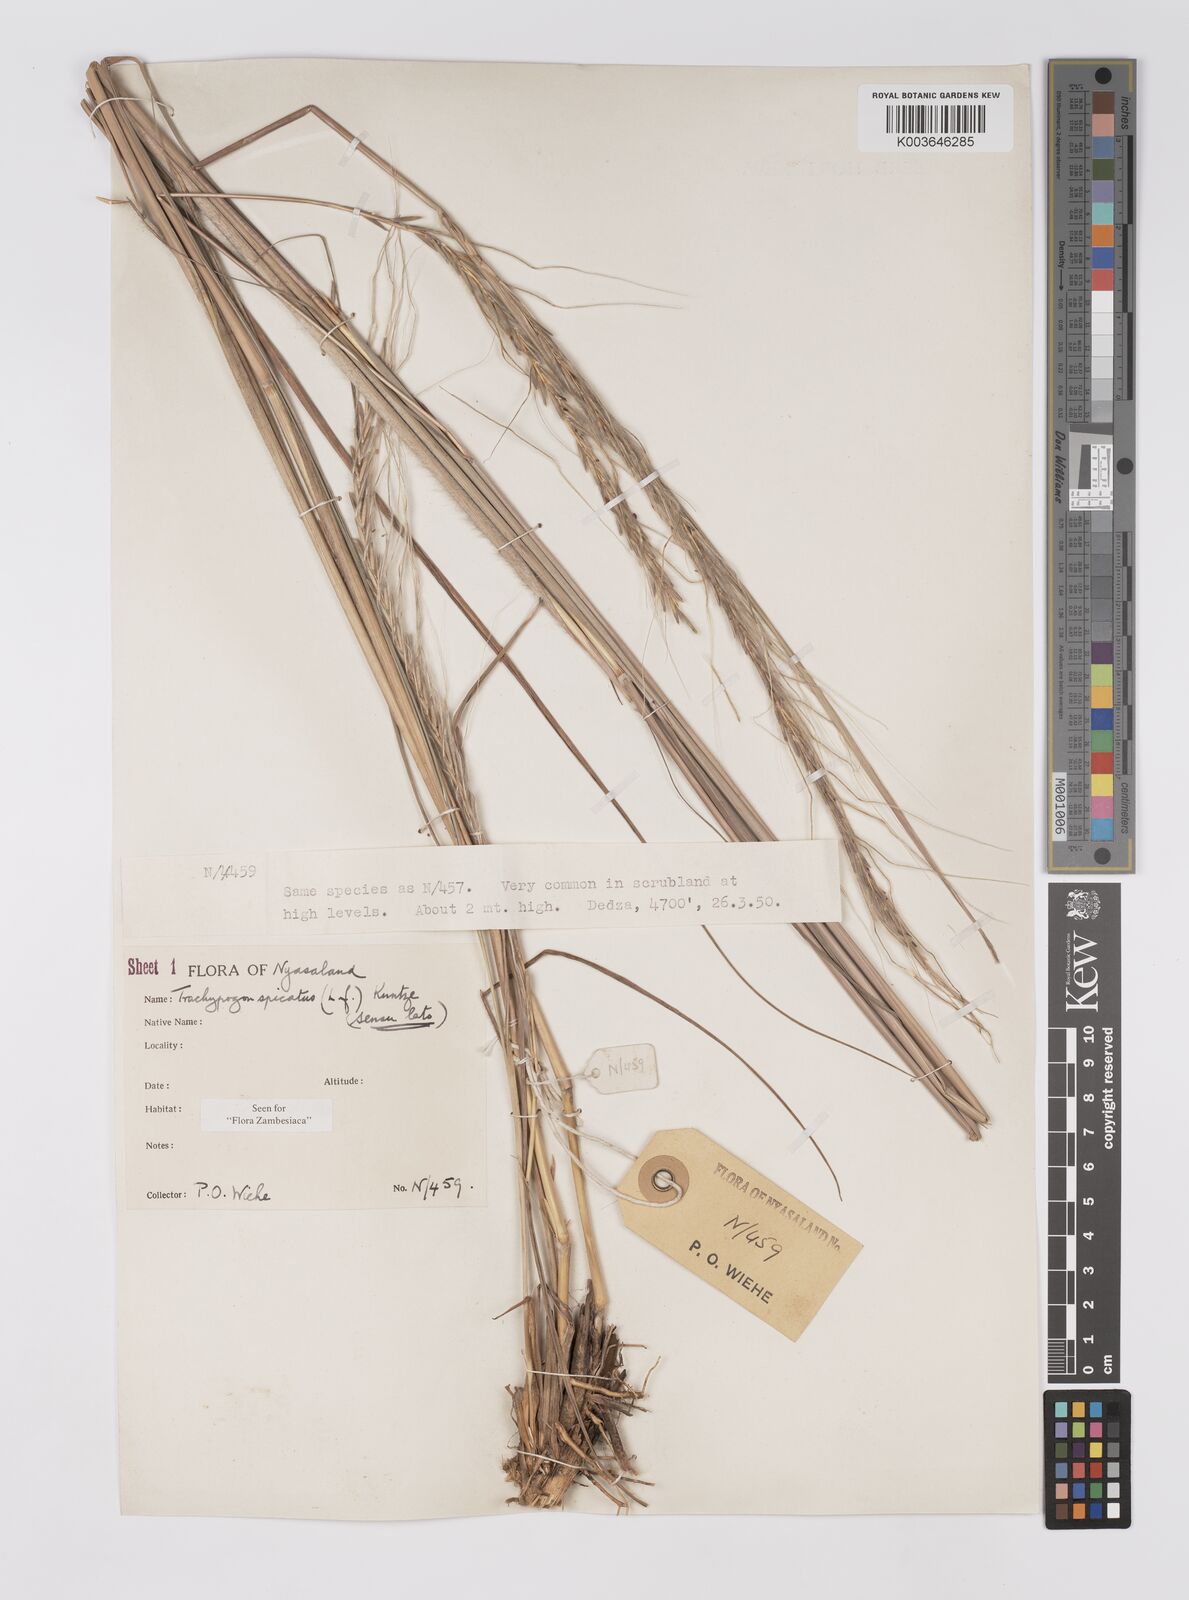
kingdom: Plantae
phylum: Tracheophyta
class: Liliopsida
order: Poales
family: Poaceae
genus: Trachypogon
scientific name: Trachypogon spicatus
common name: Crinkle-awn
